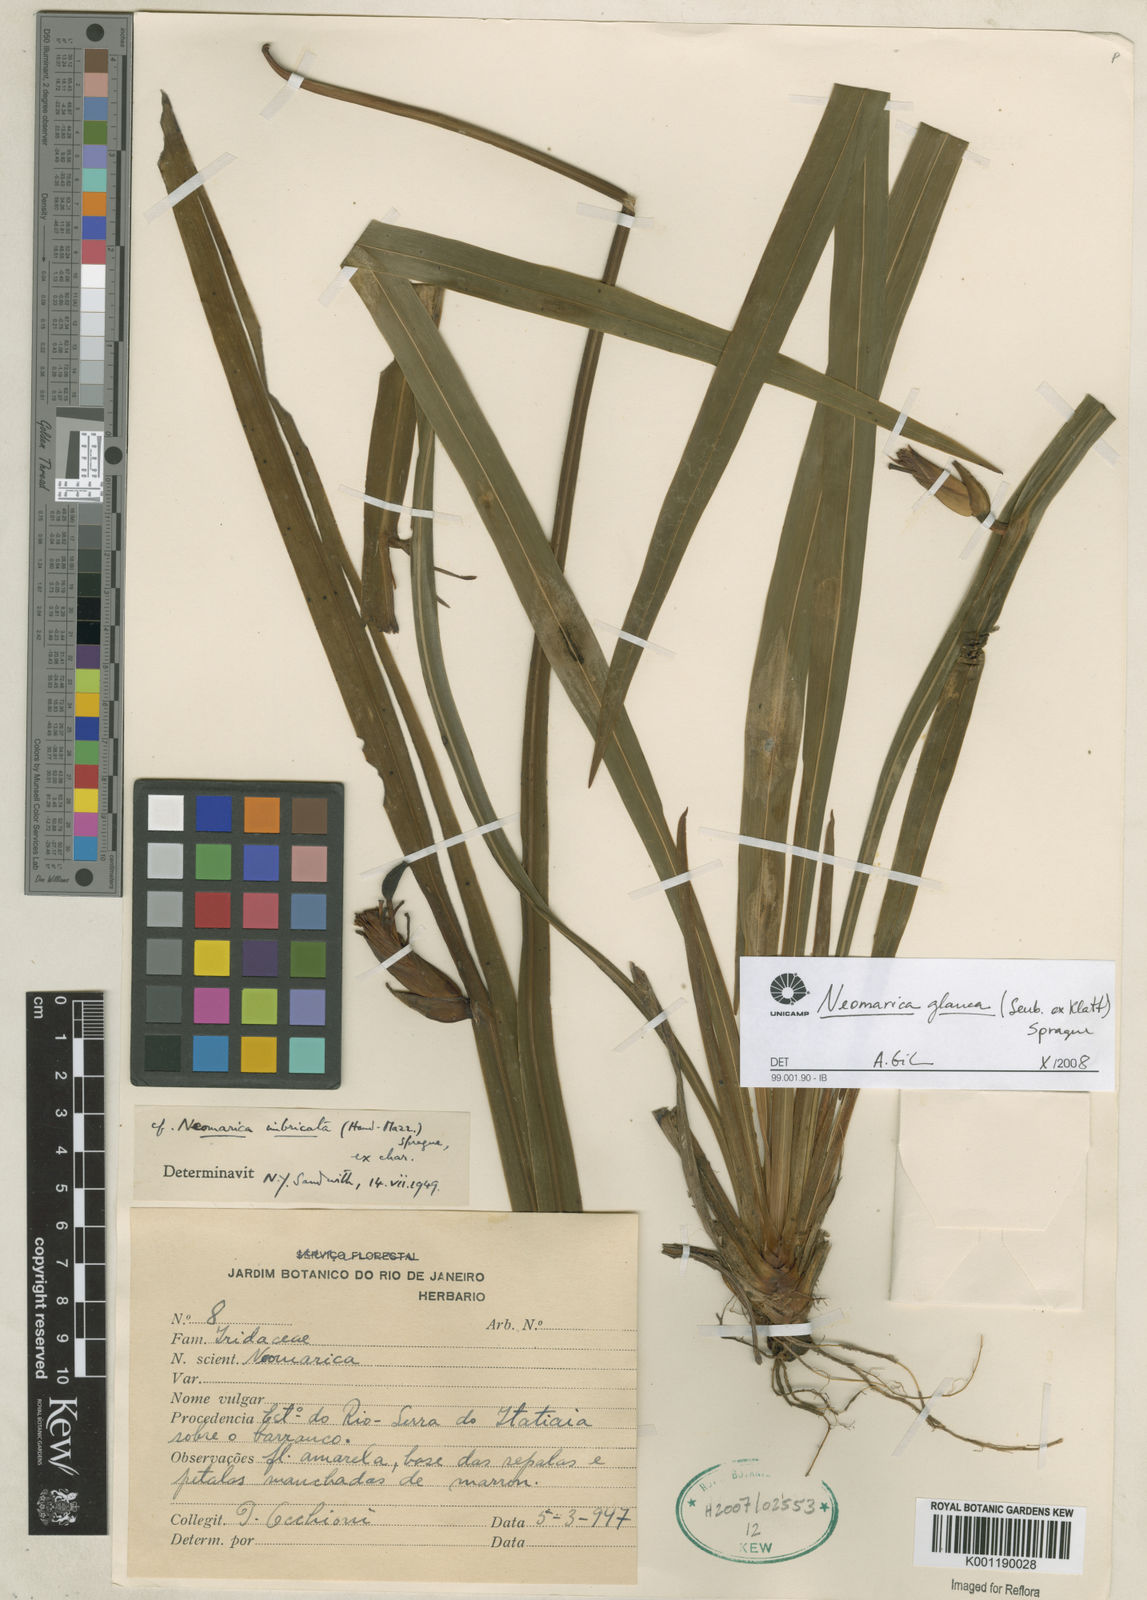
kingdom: Plantae
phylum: Tracheophyta
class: Liliopsida
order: Asparagales
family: Iridaceae
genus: Trimezia
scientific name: Trimezia glauca
